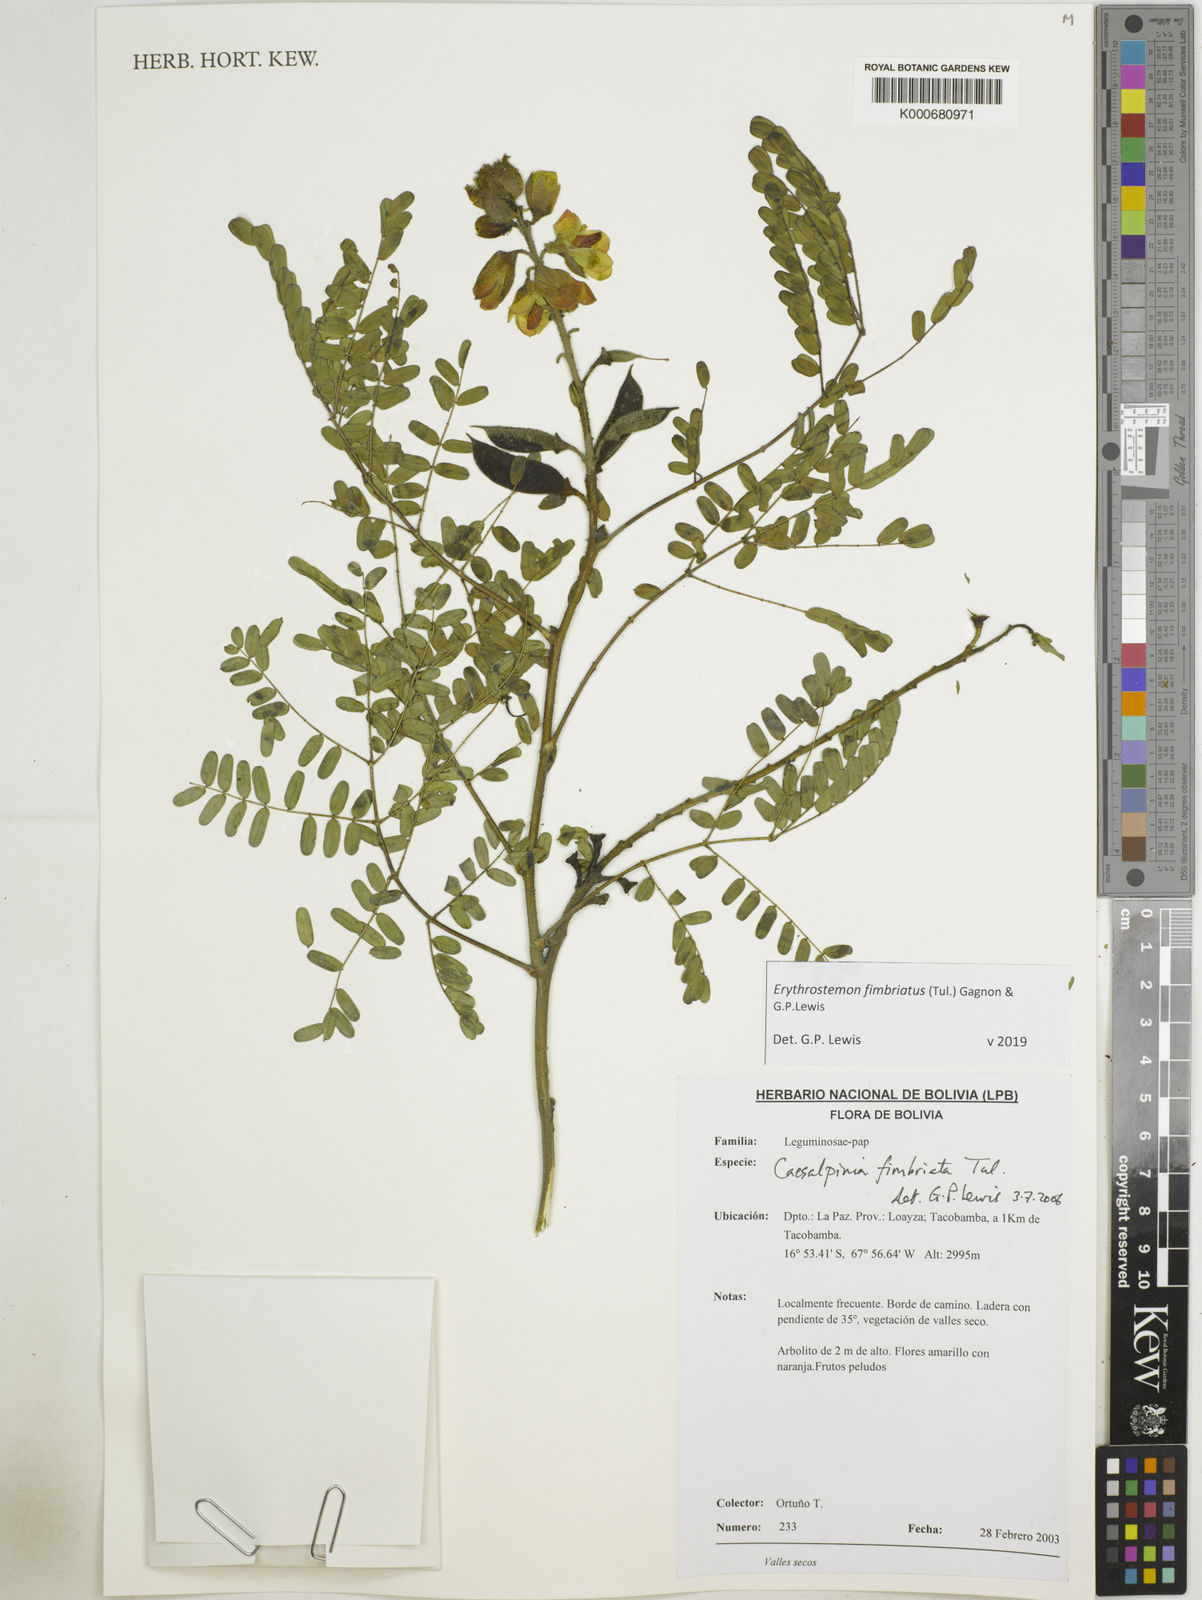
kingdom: Plantae
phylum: Tracheophyta
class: Magnoliopsida
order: Fabales
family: Fabaceae
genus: Erythrostemon
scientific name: Erythrostemon fimbriatus
